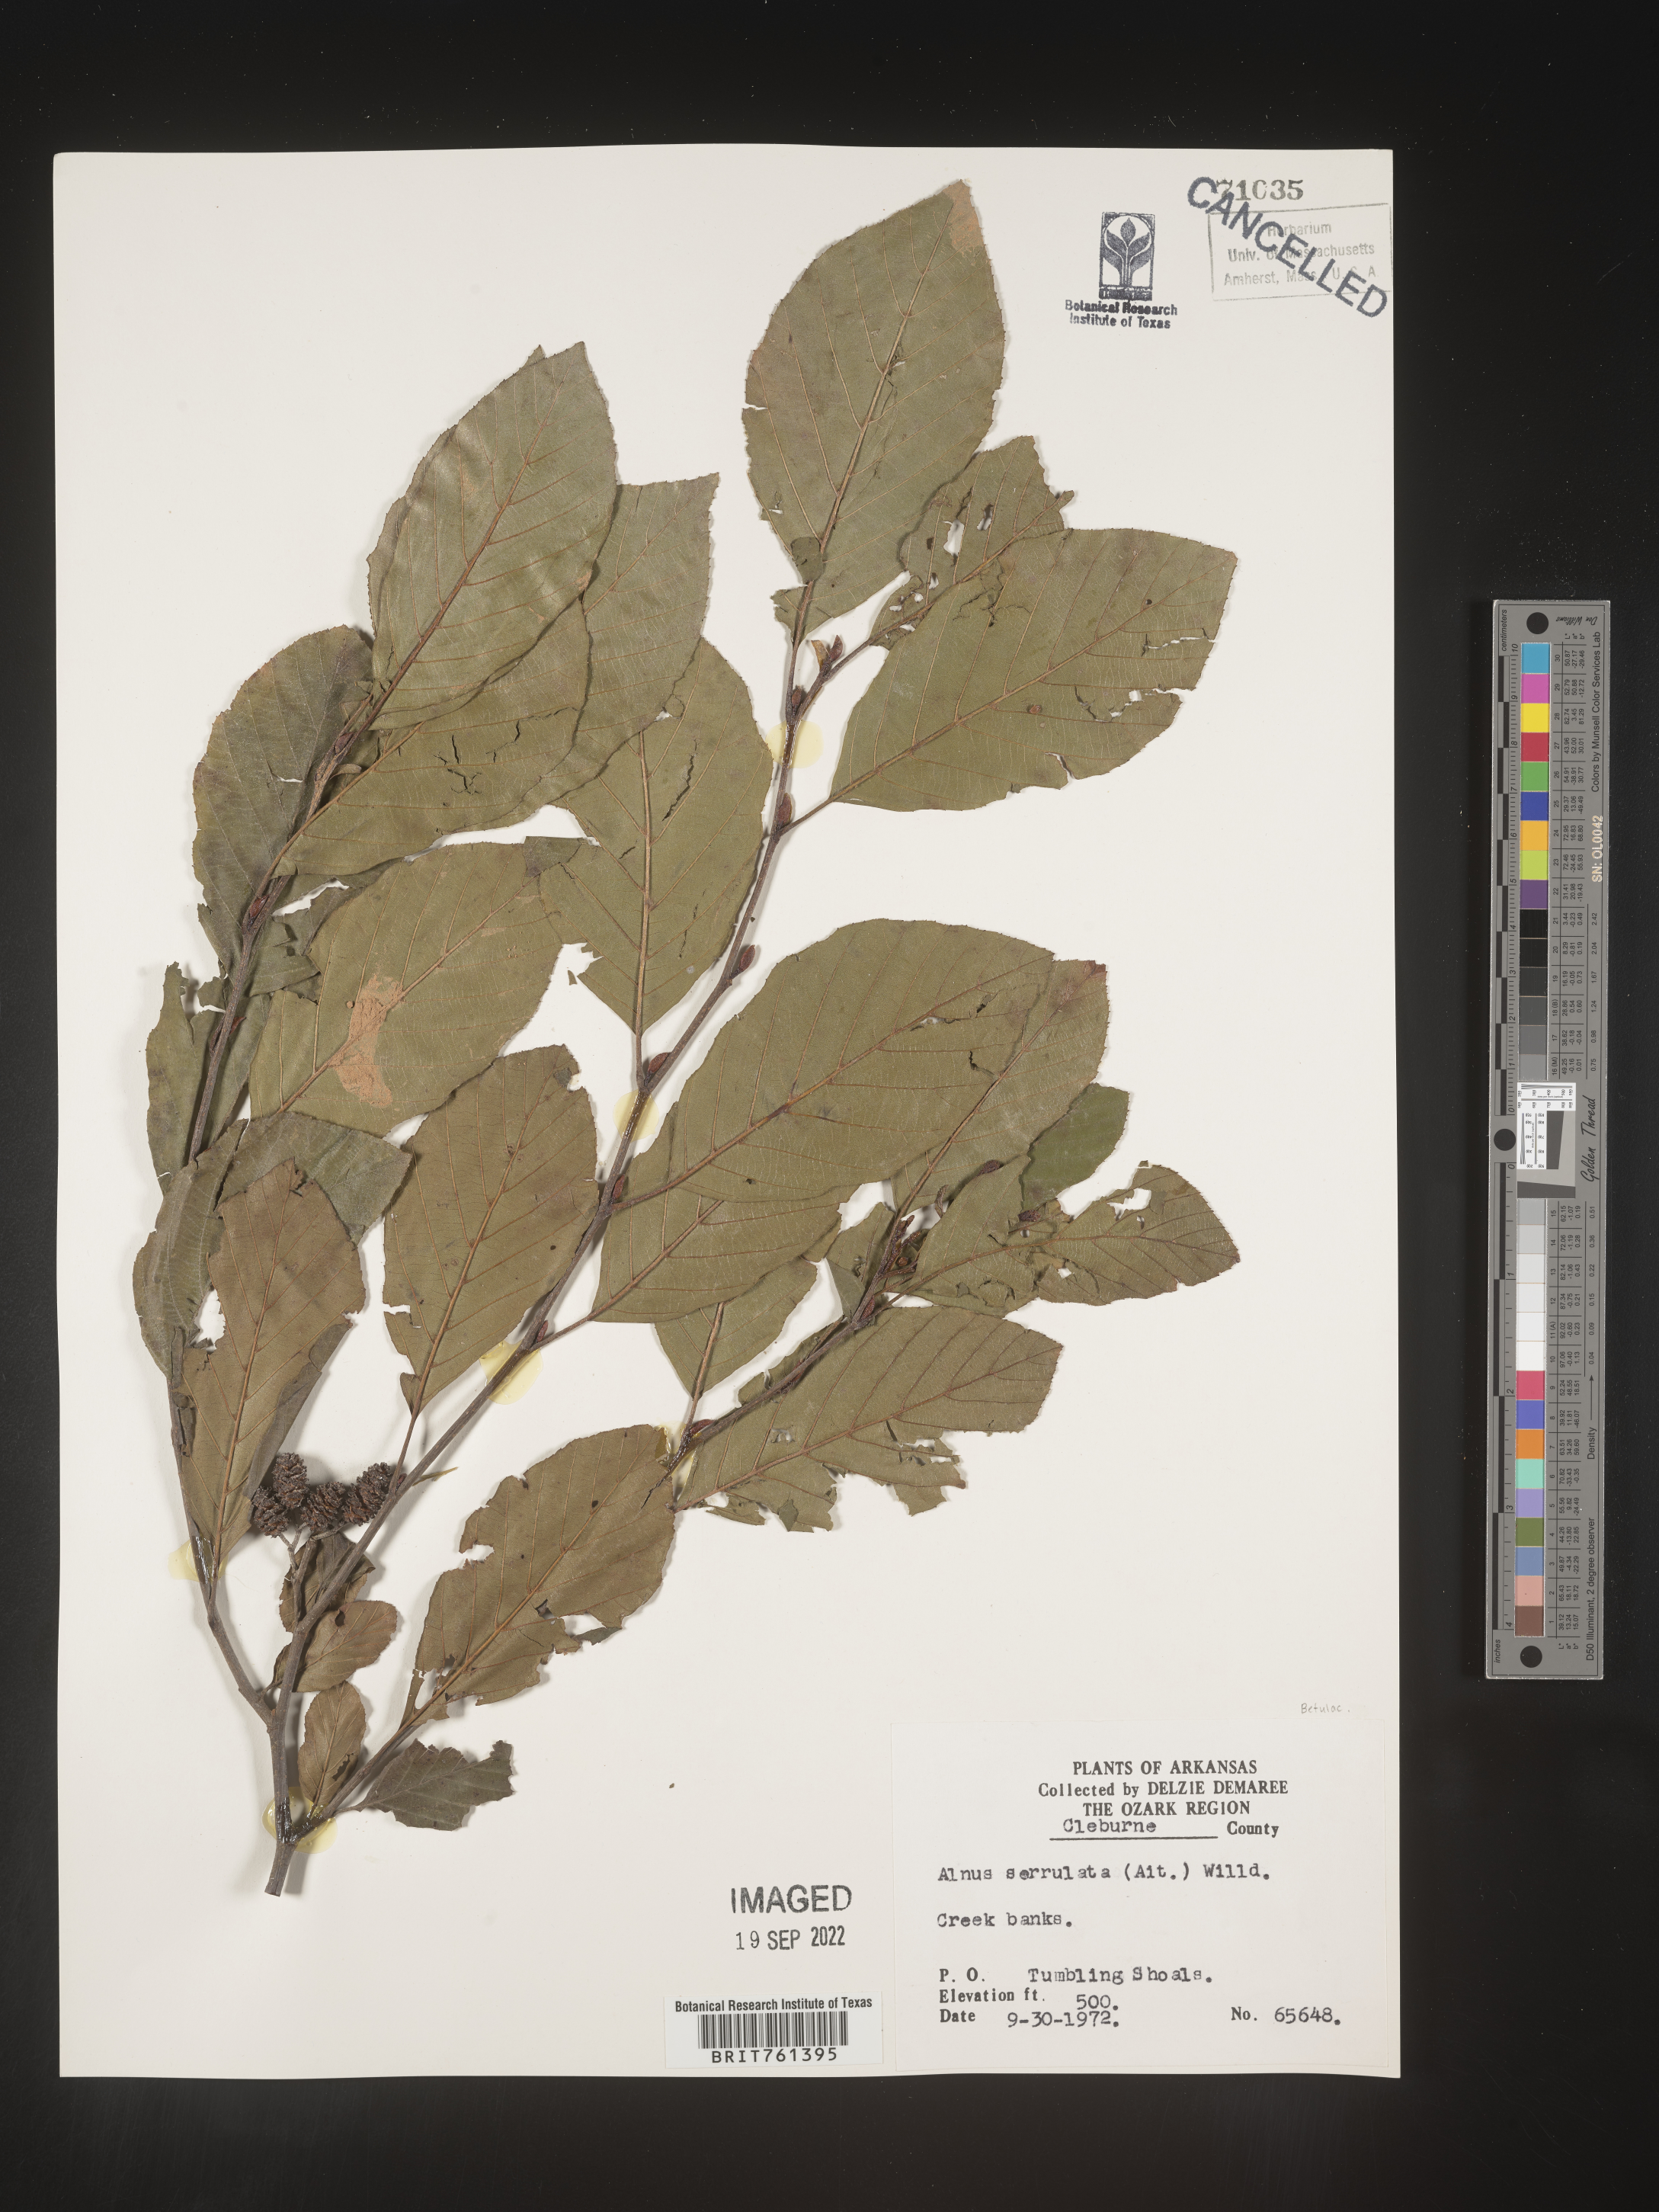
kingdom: Plantae
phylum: Tracheophyta
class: Magnoliopsida
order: Fagales
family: Betulaceae
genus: Alnus
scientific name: Alnus serrulata
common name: Hazel alder
